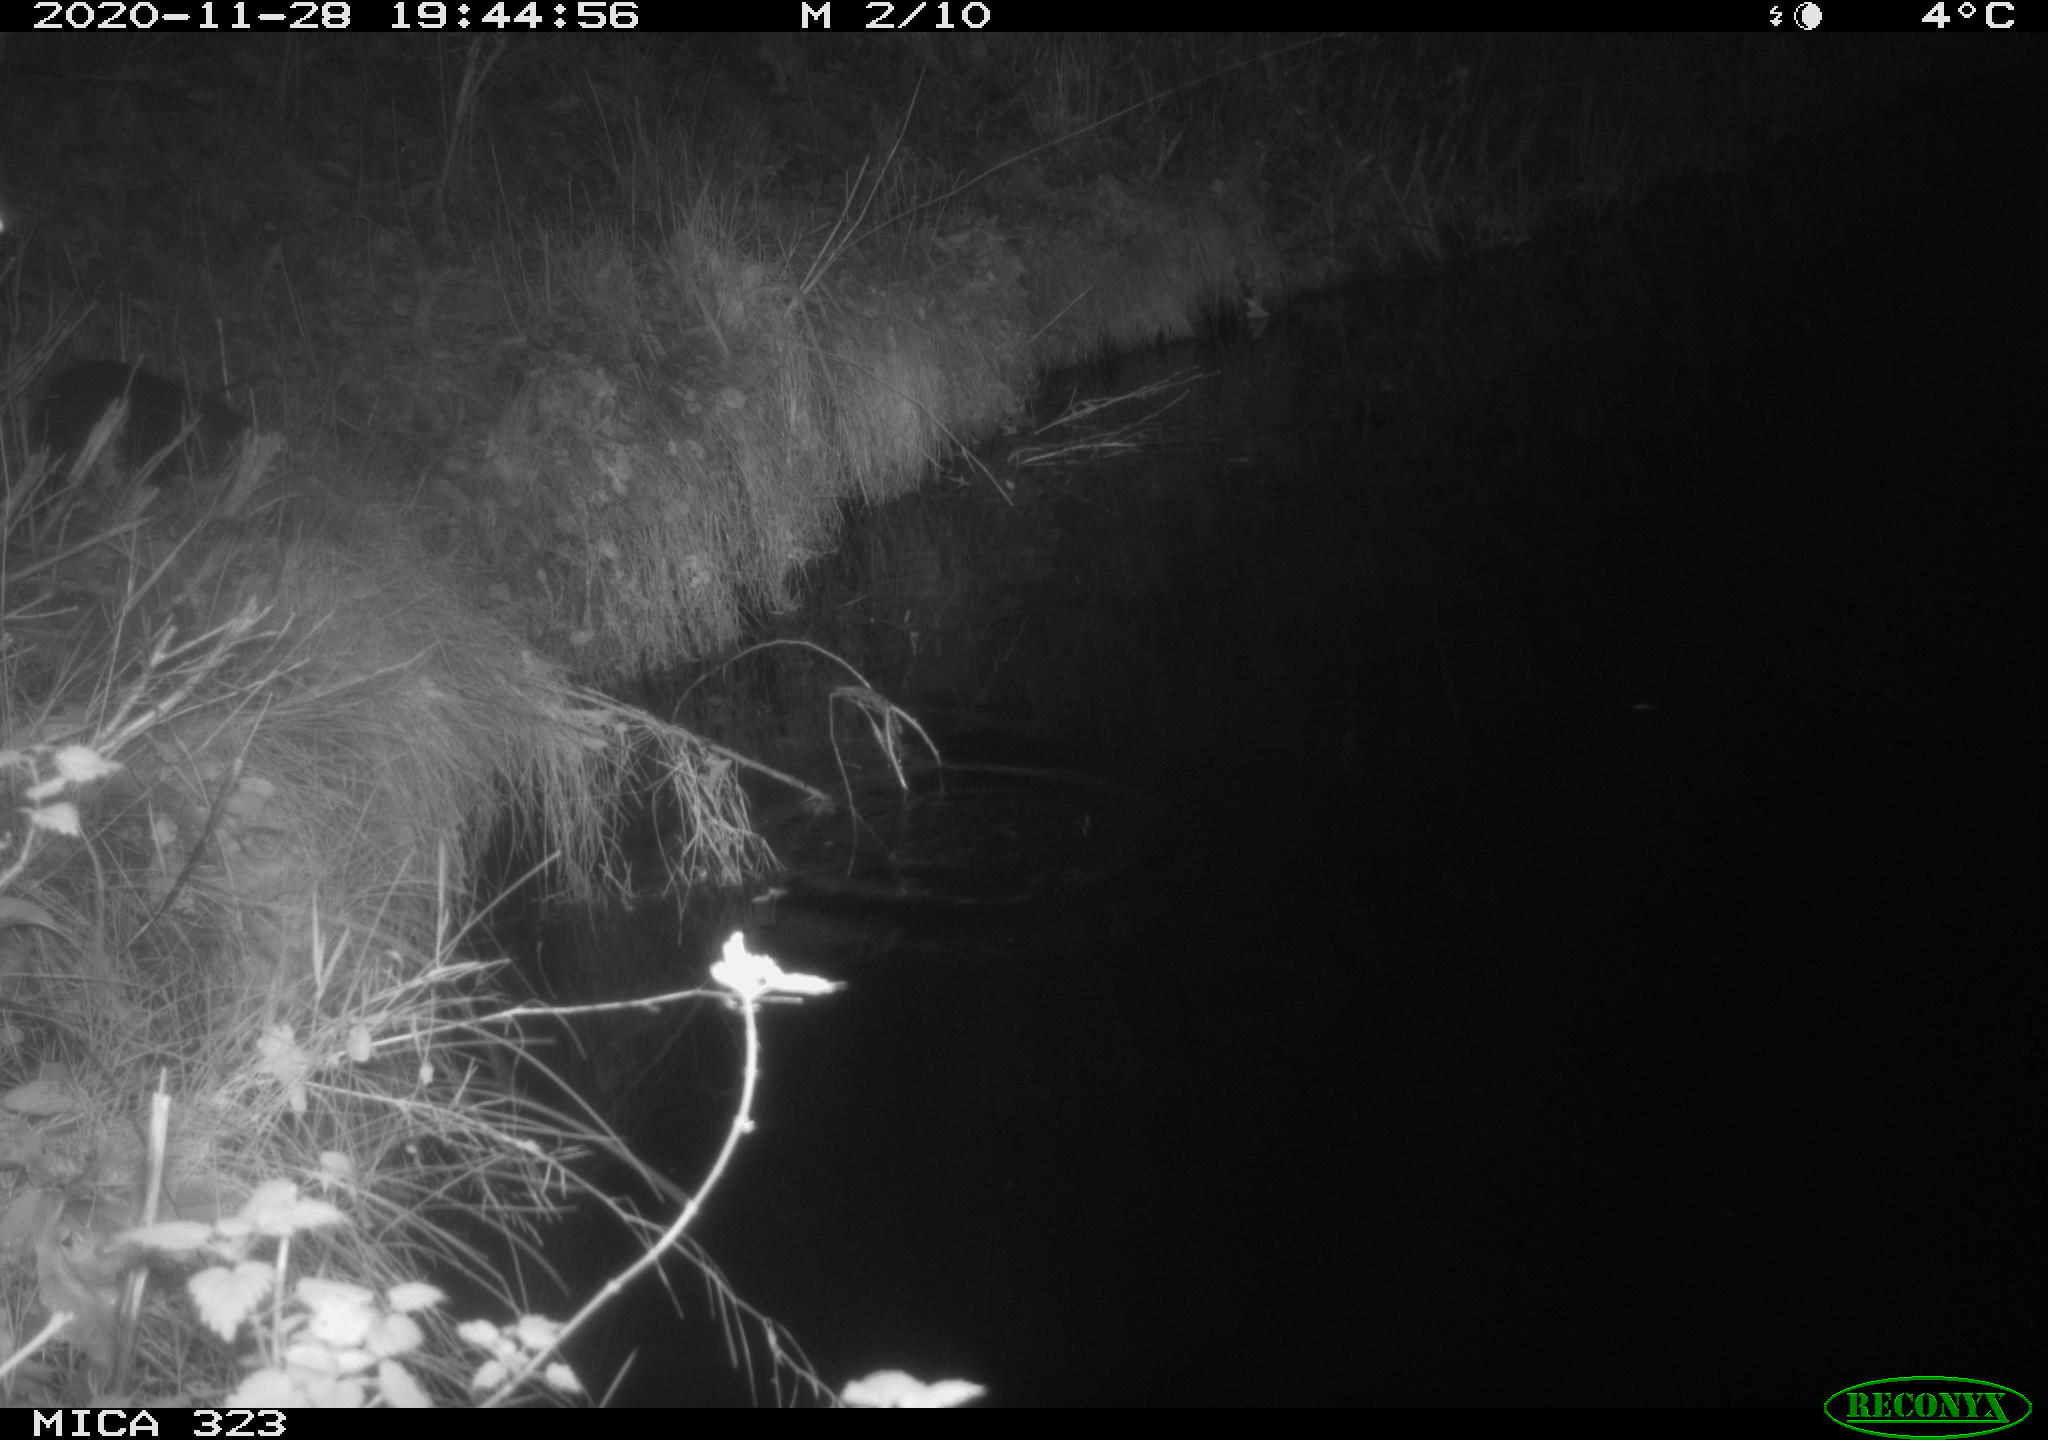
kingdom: Animalia
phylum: Chordata
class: Mammalia
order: Rodentia
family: Myocastoridae
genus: Myocastor
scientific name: Myocastor coypus
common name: Coypu
